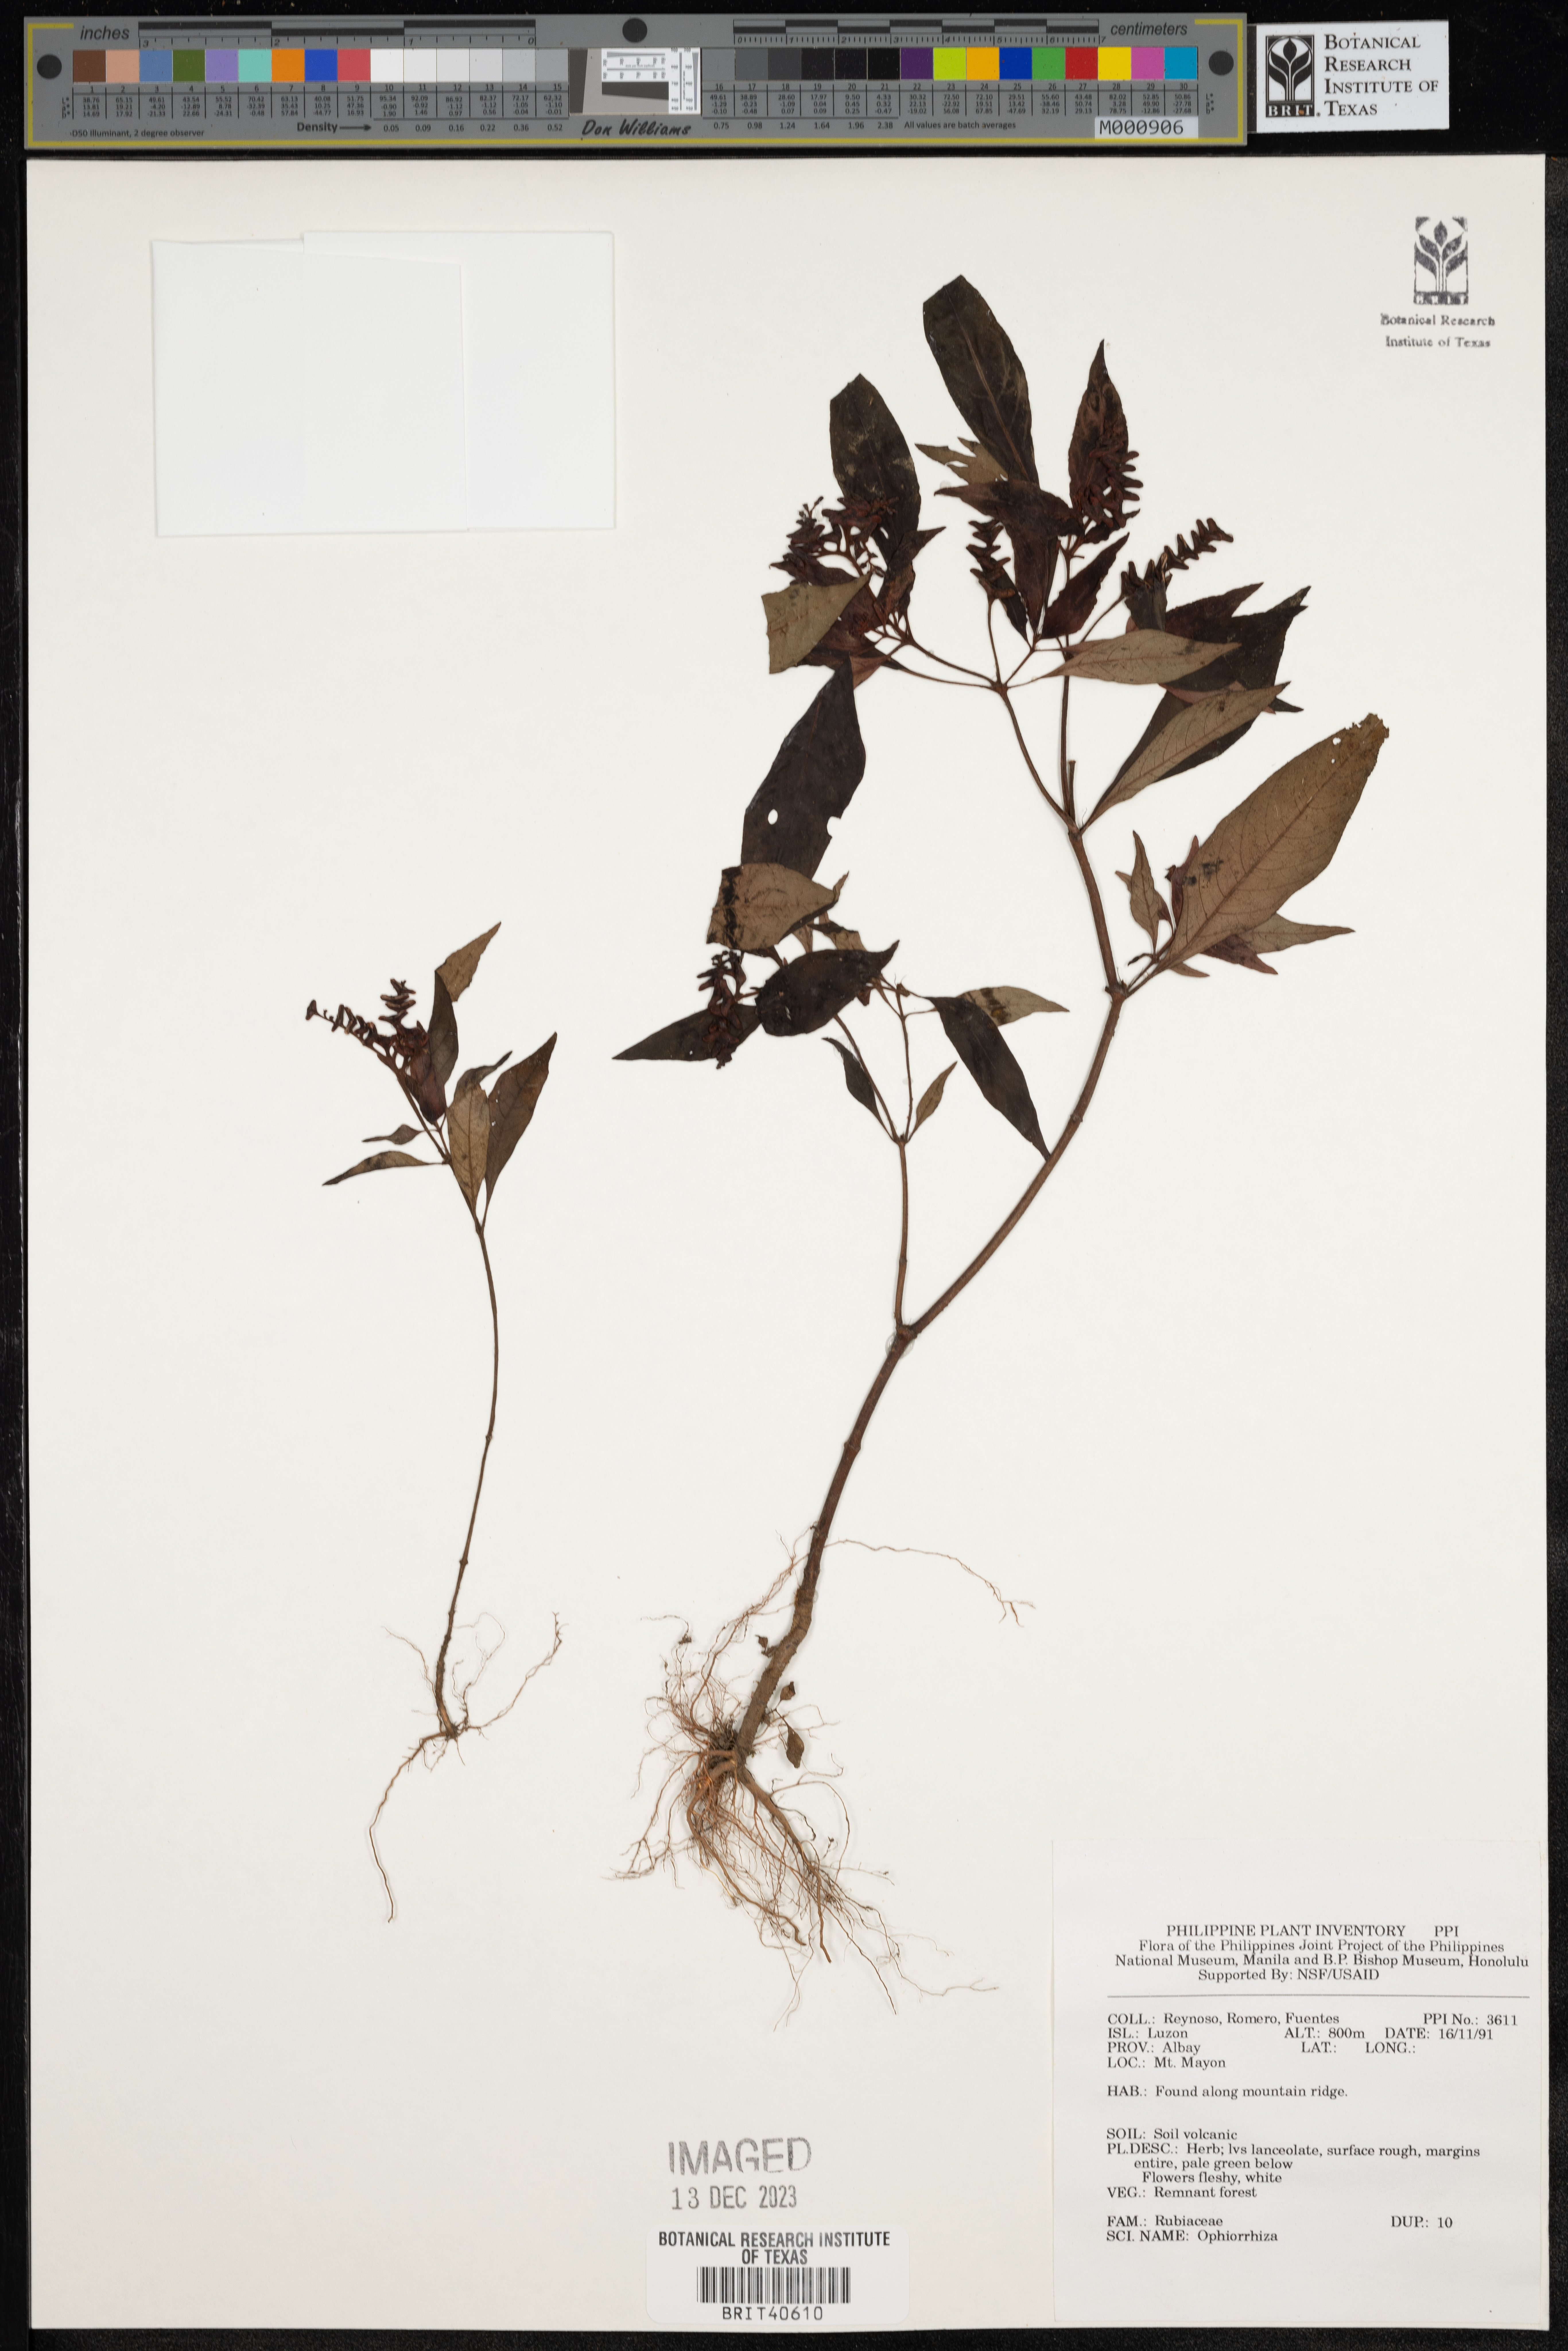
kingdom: Plantae
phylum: Tracheophyta
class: Magnoliopsida
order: Gentianales
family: Rubiaceae
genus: Ophiorrhiza
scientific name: Ophiorrhiza
